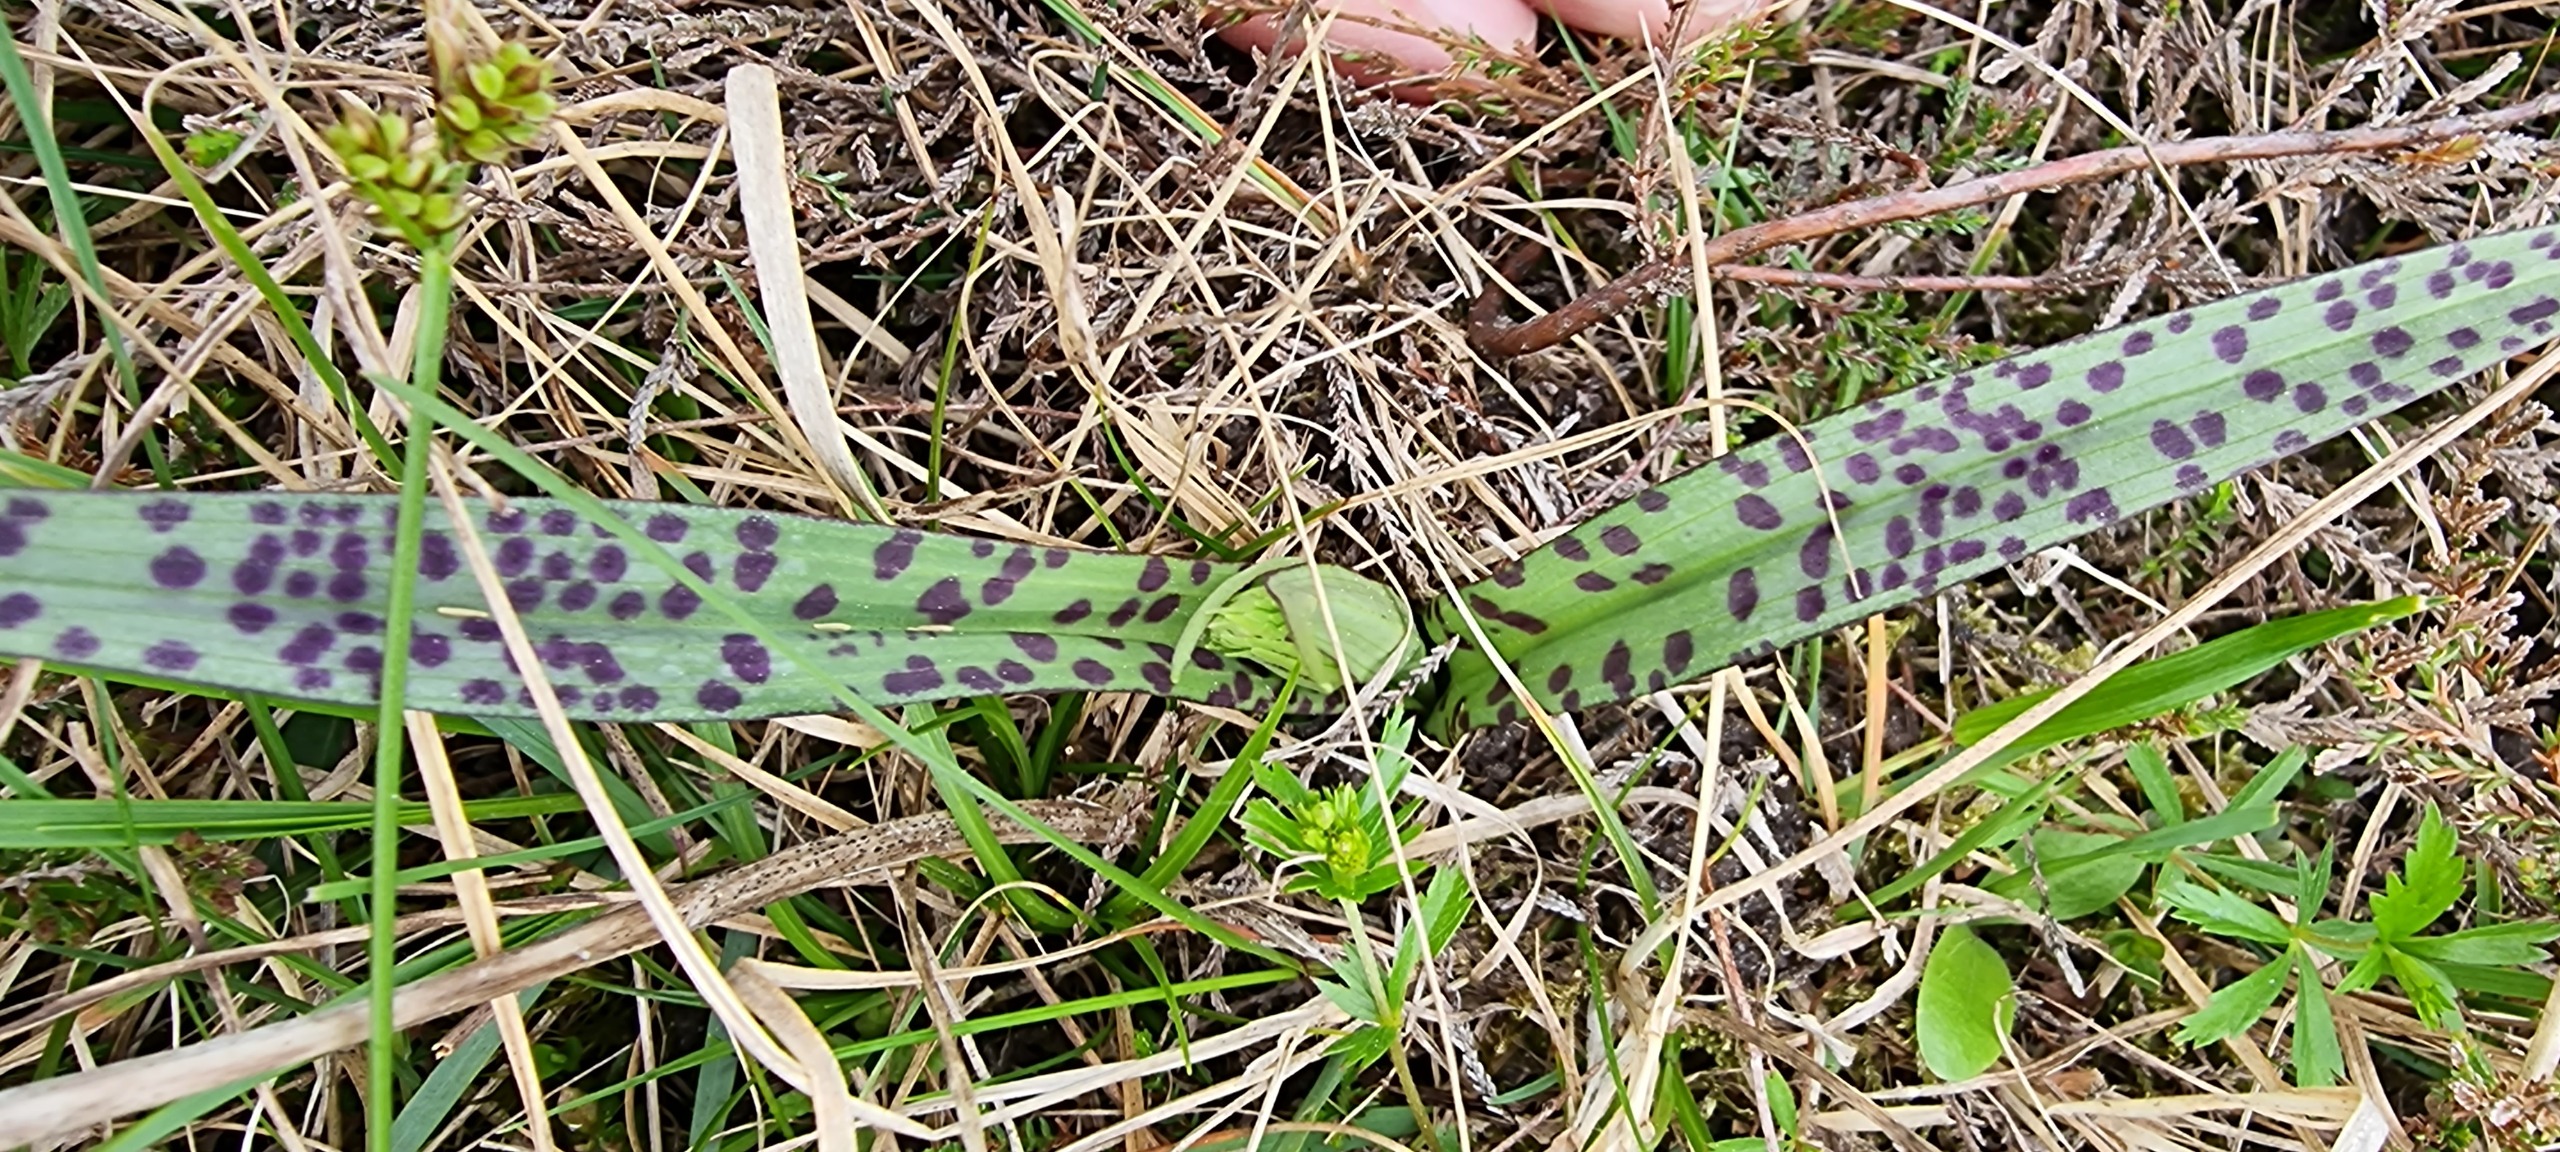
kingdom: Plantae
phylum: Tracheophyta
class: Liliopsida
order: Asparagales
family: Orchidaceae
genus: Dactylorhiza
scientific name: Dactylorhiza maculata
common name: Plettet gøgeurt
